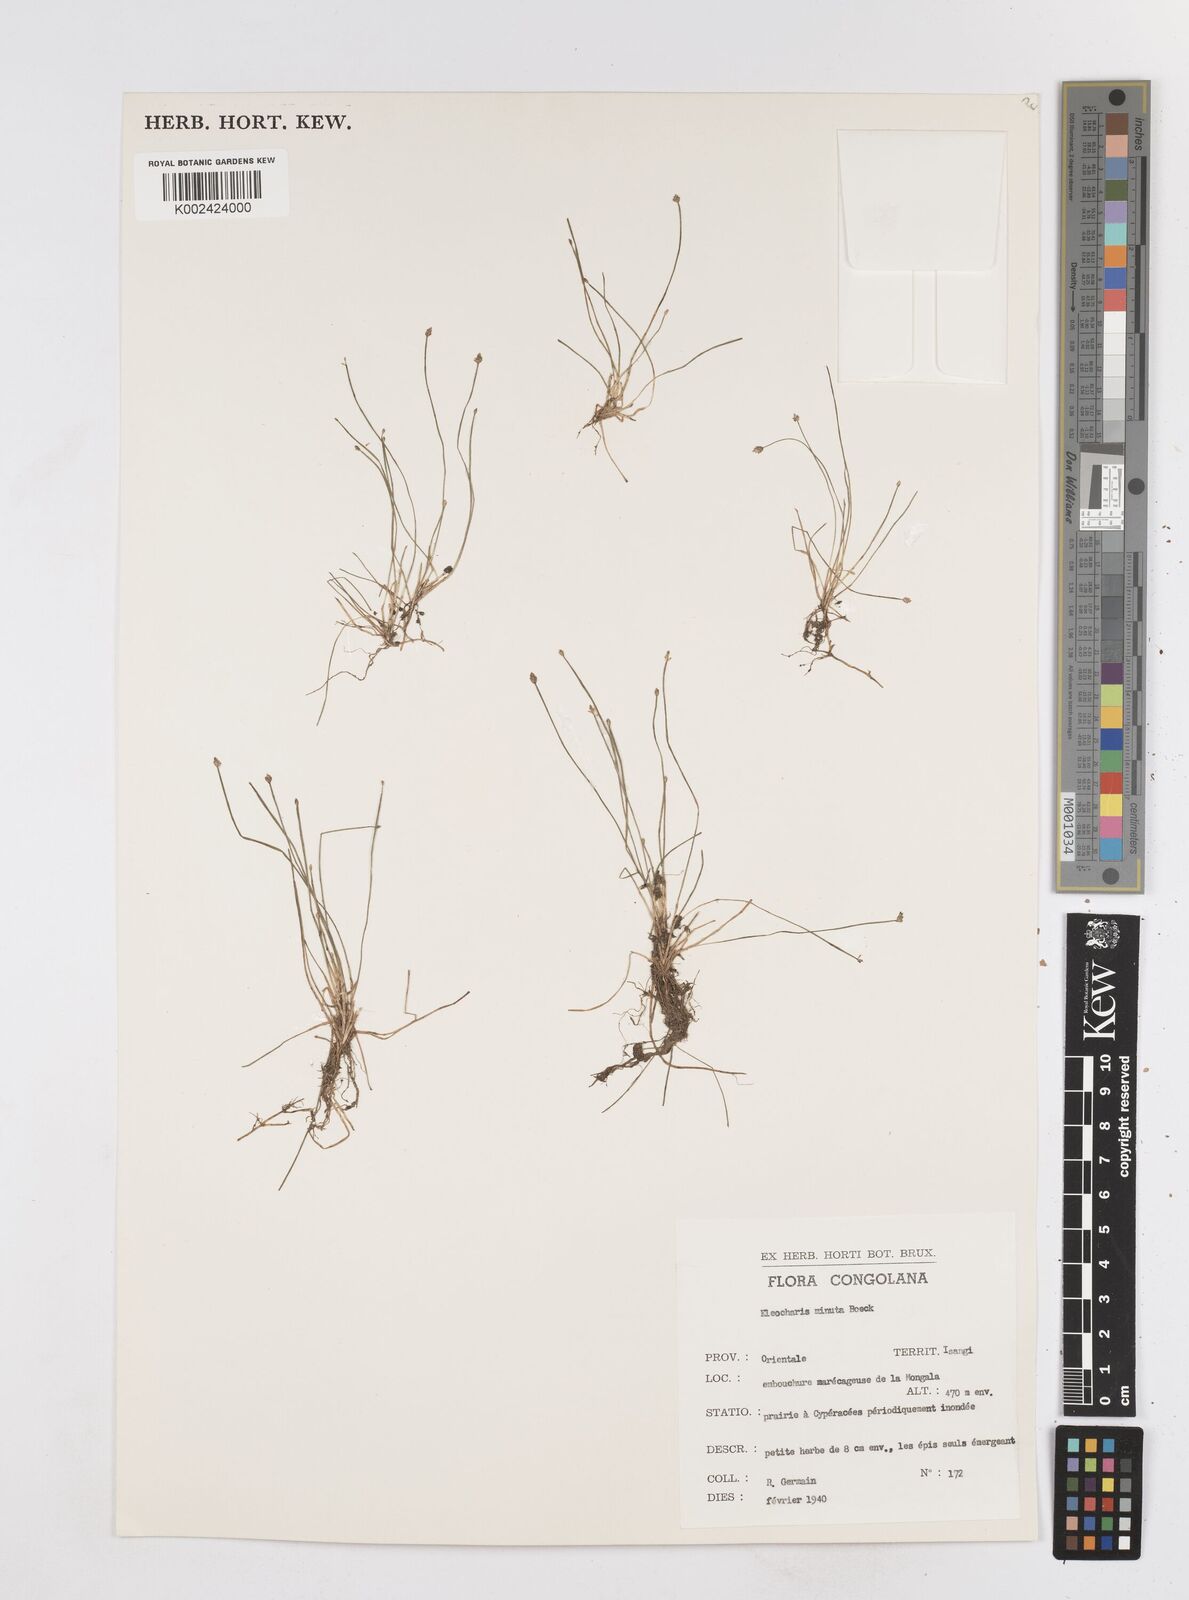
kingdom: Plantae
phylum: Tracheophyta
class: Liliopsida
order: Poales
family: Cyperaceae
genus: Eleocharis
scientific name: Eleocharis
